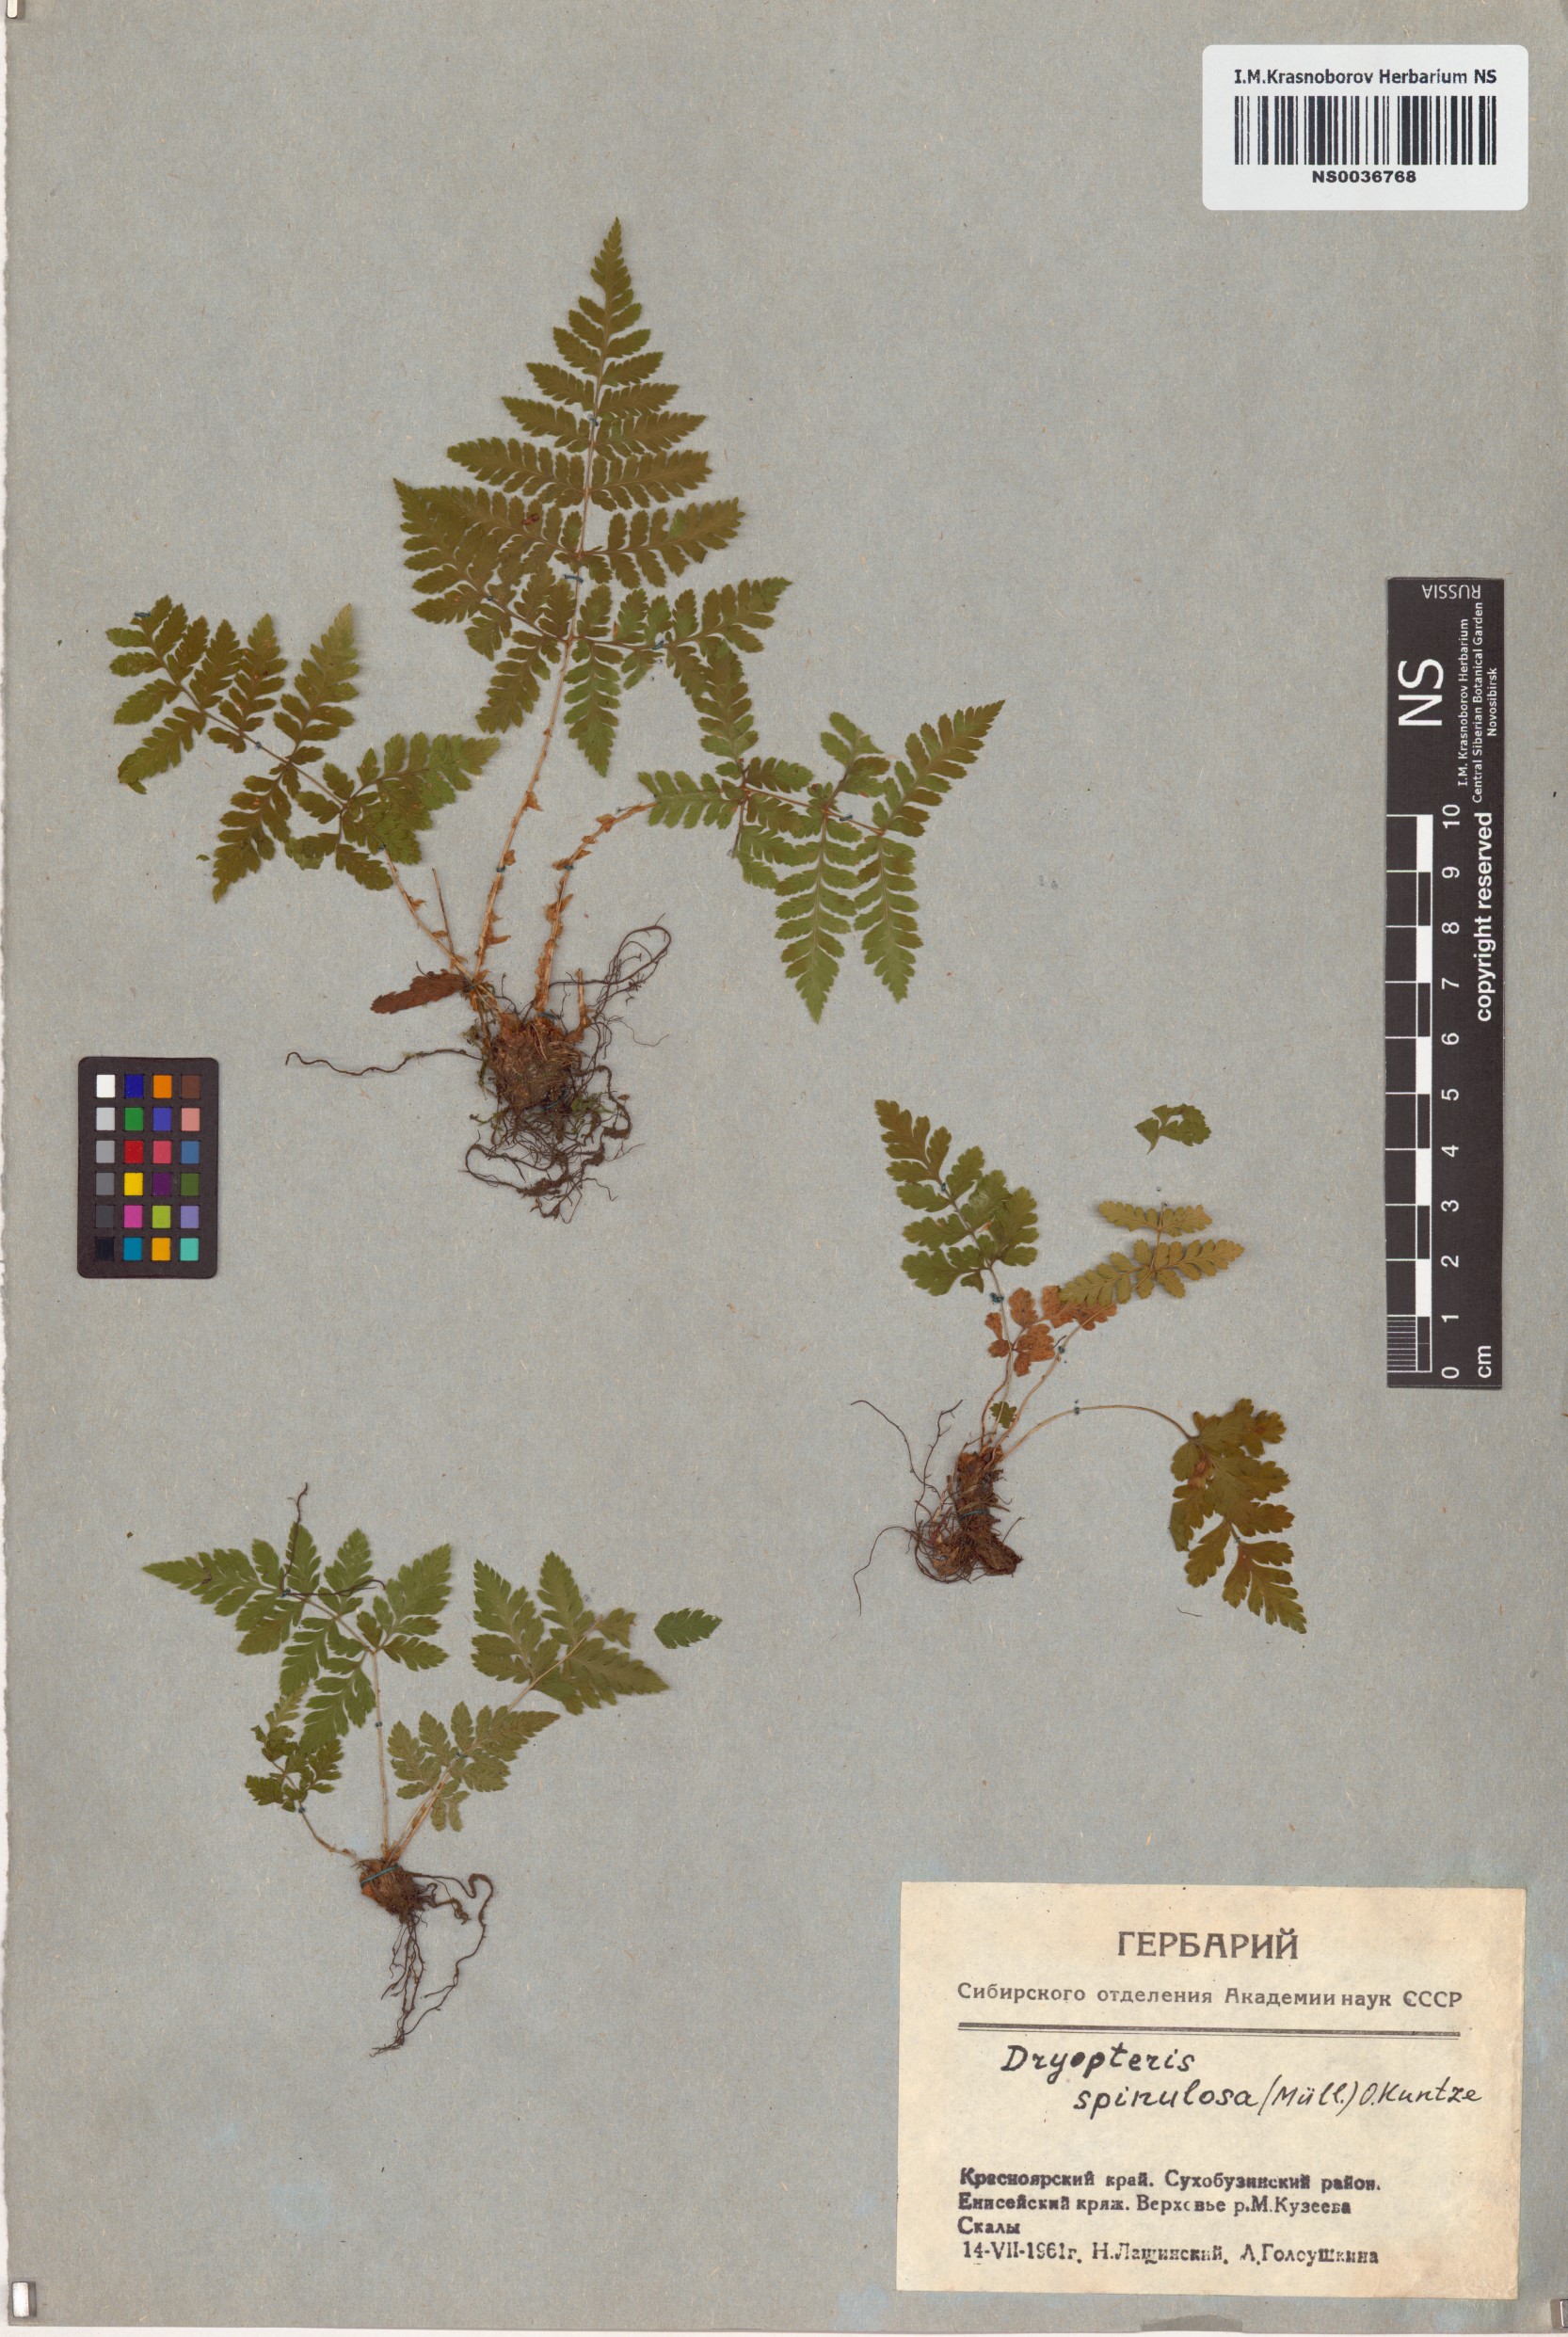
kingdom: Plantae
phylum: Tracheophyta
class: Polypodiopsida
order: Polypodiales
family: Dryopteridaceae
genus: Dryopteris
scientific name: Dryopteris carthusiana
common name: Narrow buckler-fern
